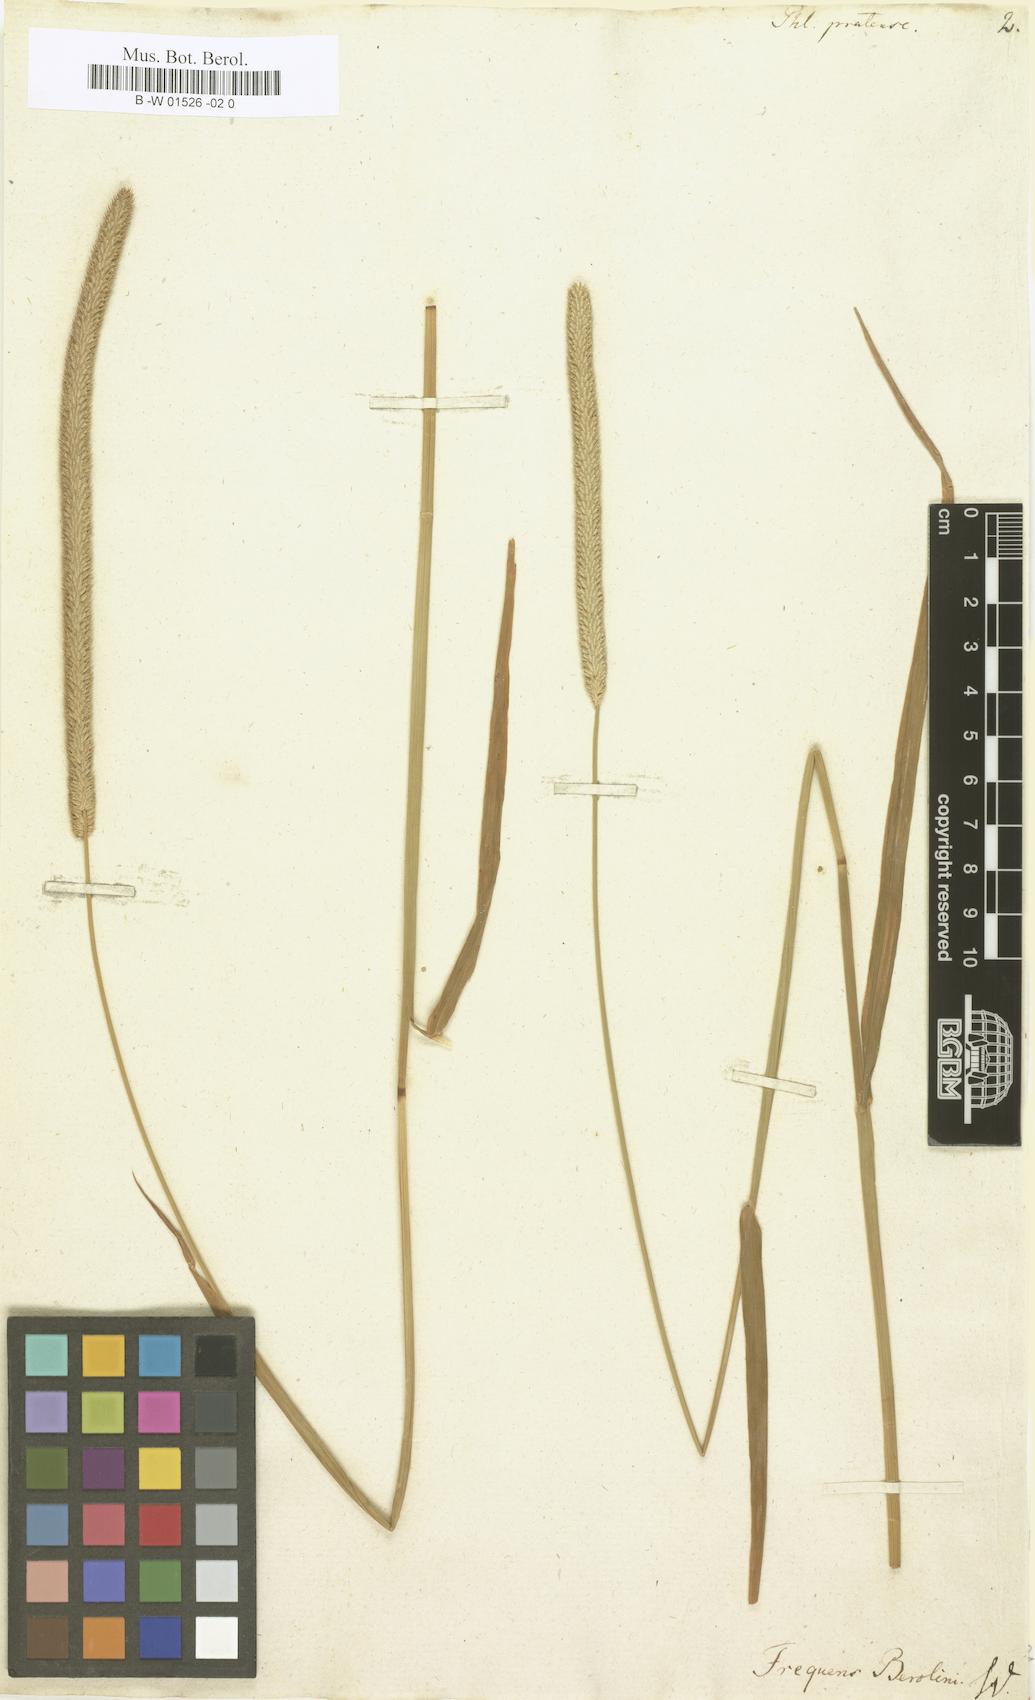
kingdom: Plantae
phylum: Tracheophyta
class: Liliopsida
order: Poales
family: Poaceae
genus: Phleum
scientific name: Phleum pratense
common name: Timothy grass
